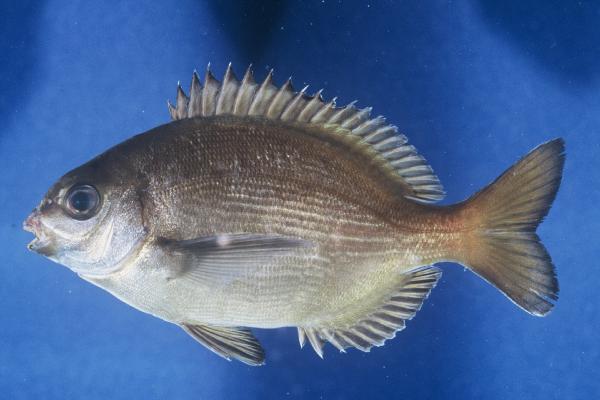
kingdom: Animalia
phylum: Chordata
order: Perciformes
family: Sparidae
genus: Pachymetopon
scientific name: Pachymetopon grande
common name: Bronze bream
